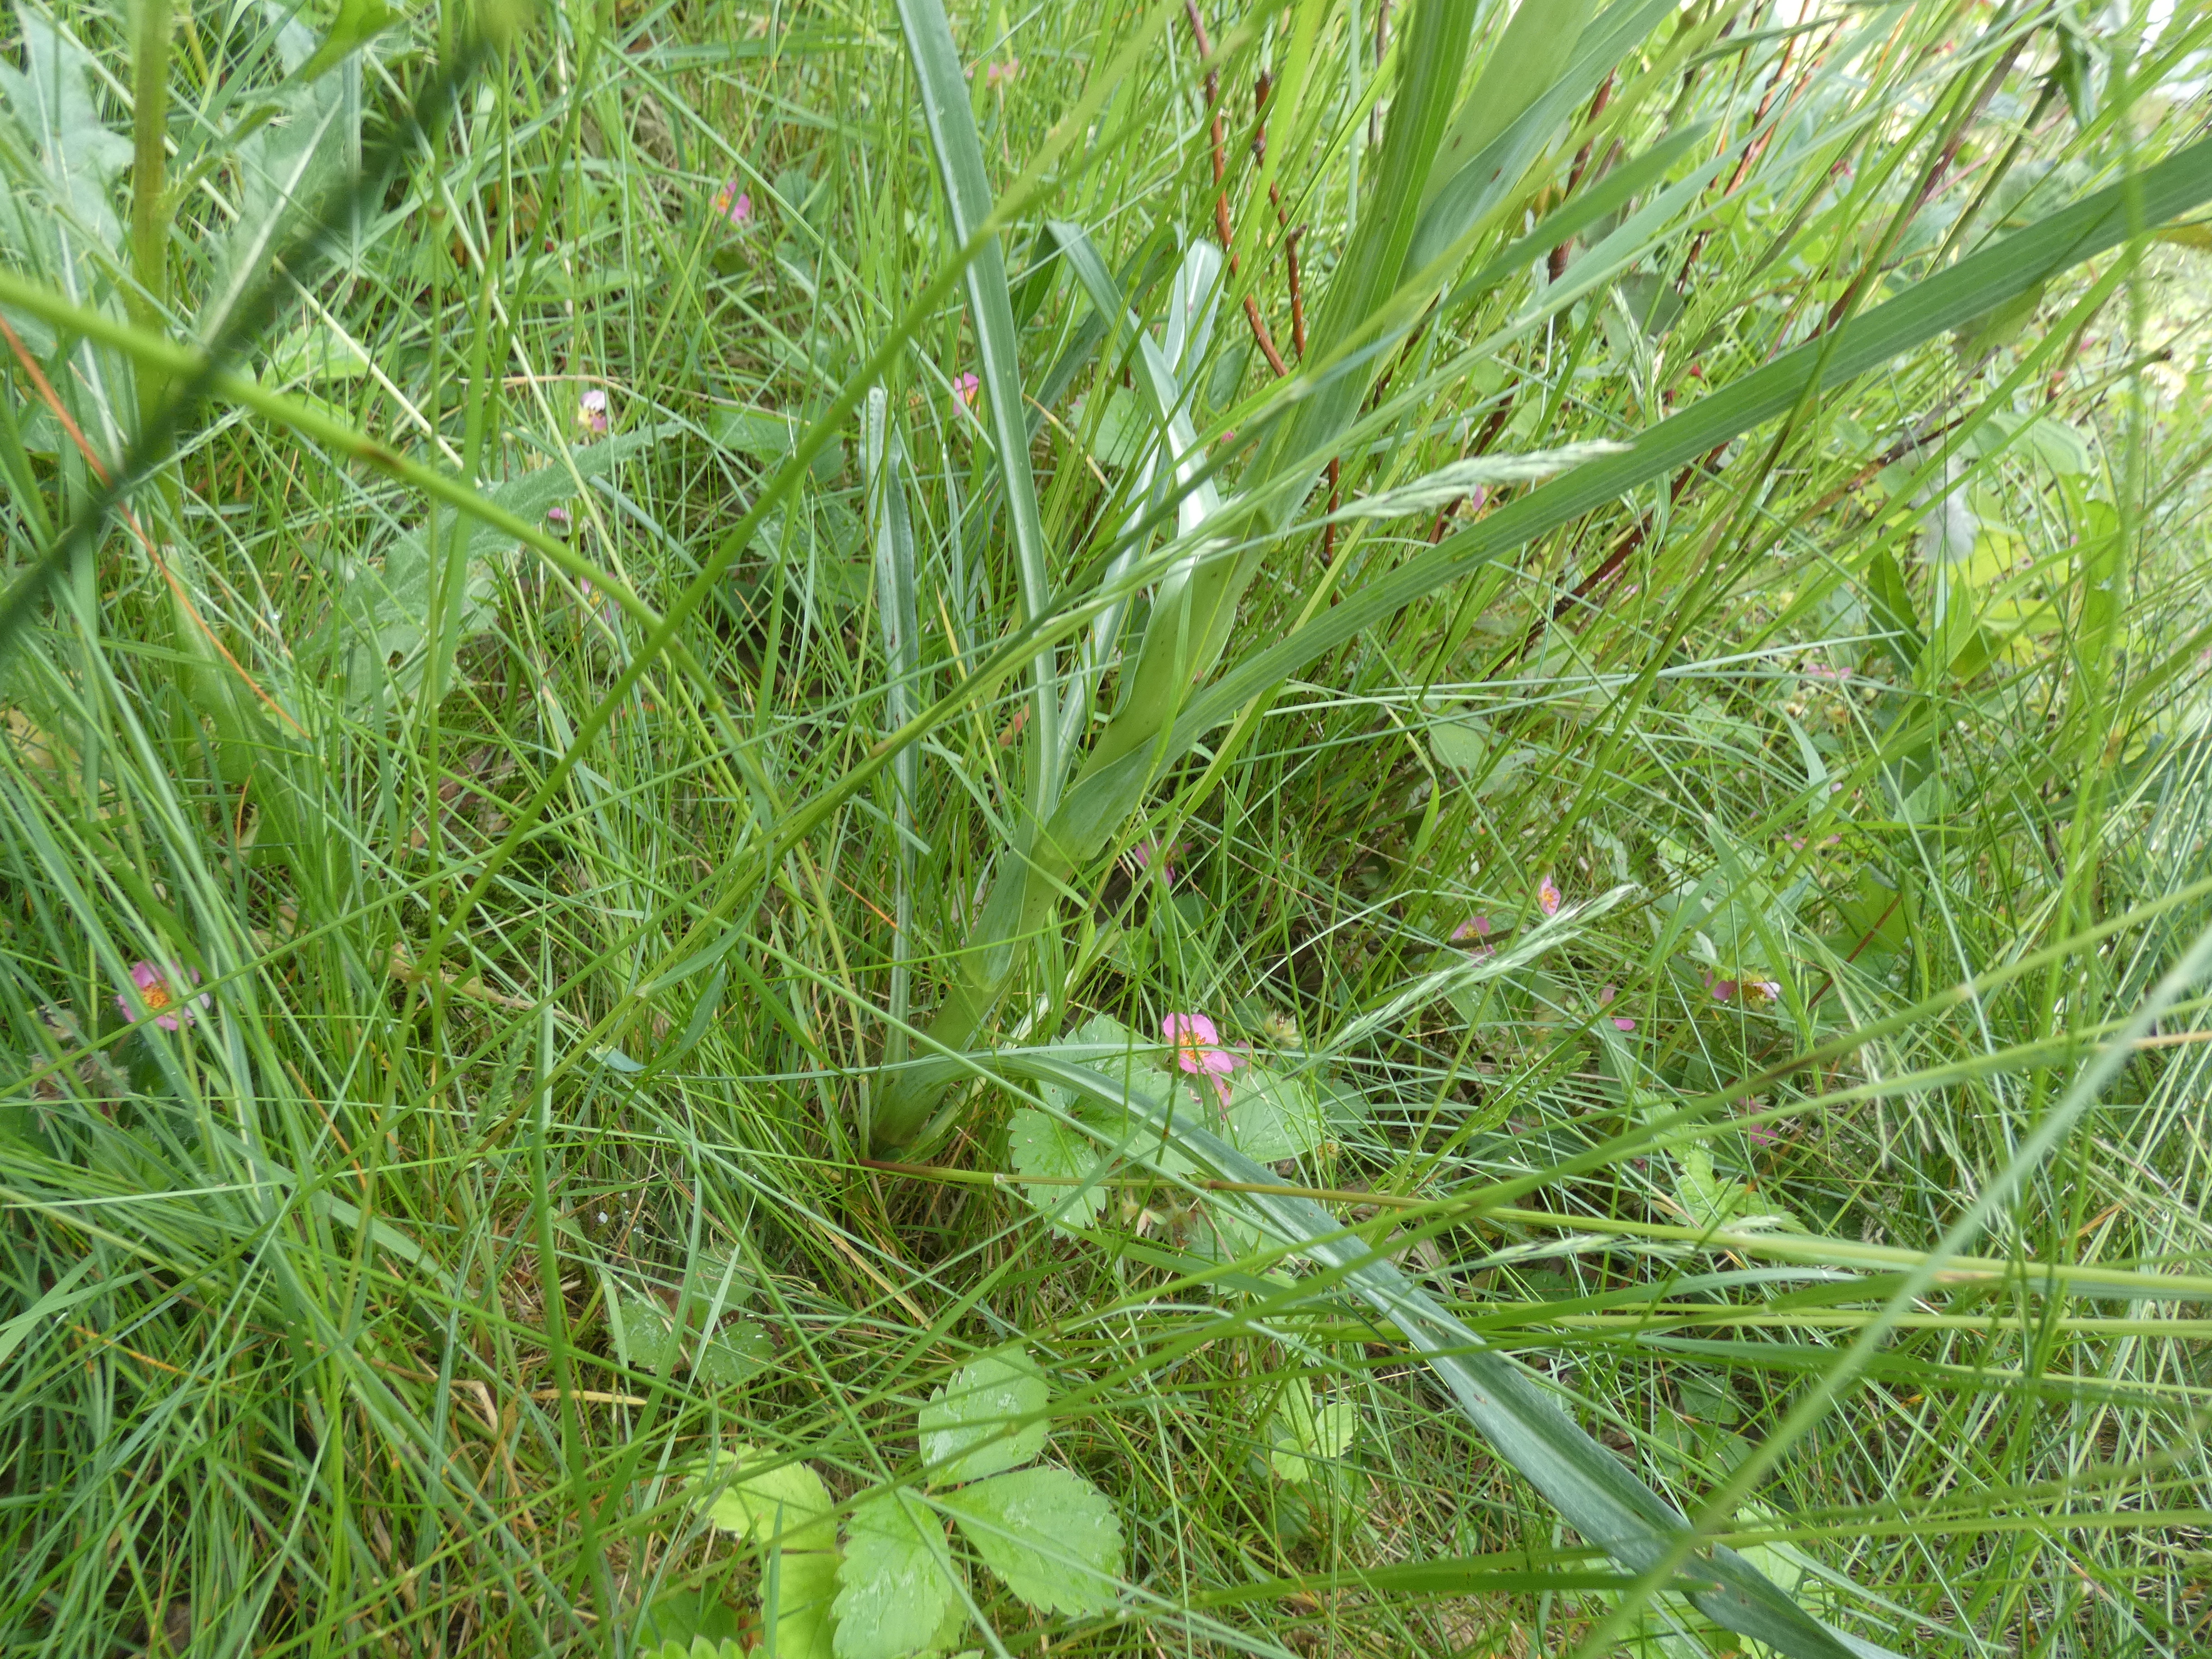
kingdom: Plantae
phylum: Tracheophyta
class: Magnoliopsida
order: Asterales
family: Asteraceae
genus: Tragopogon
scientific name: Tragopogon minor
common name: Småkronet gedeskæg
